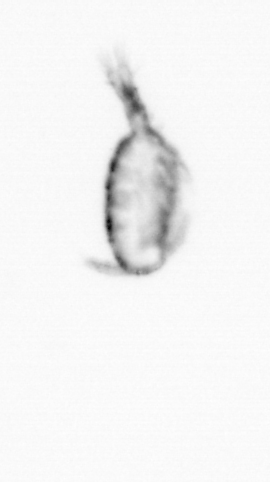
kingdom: Animalia
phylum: Arthropoda
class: Copepoda
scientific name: Copepoda
